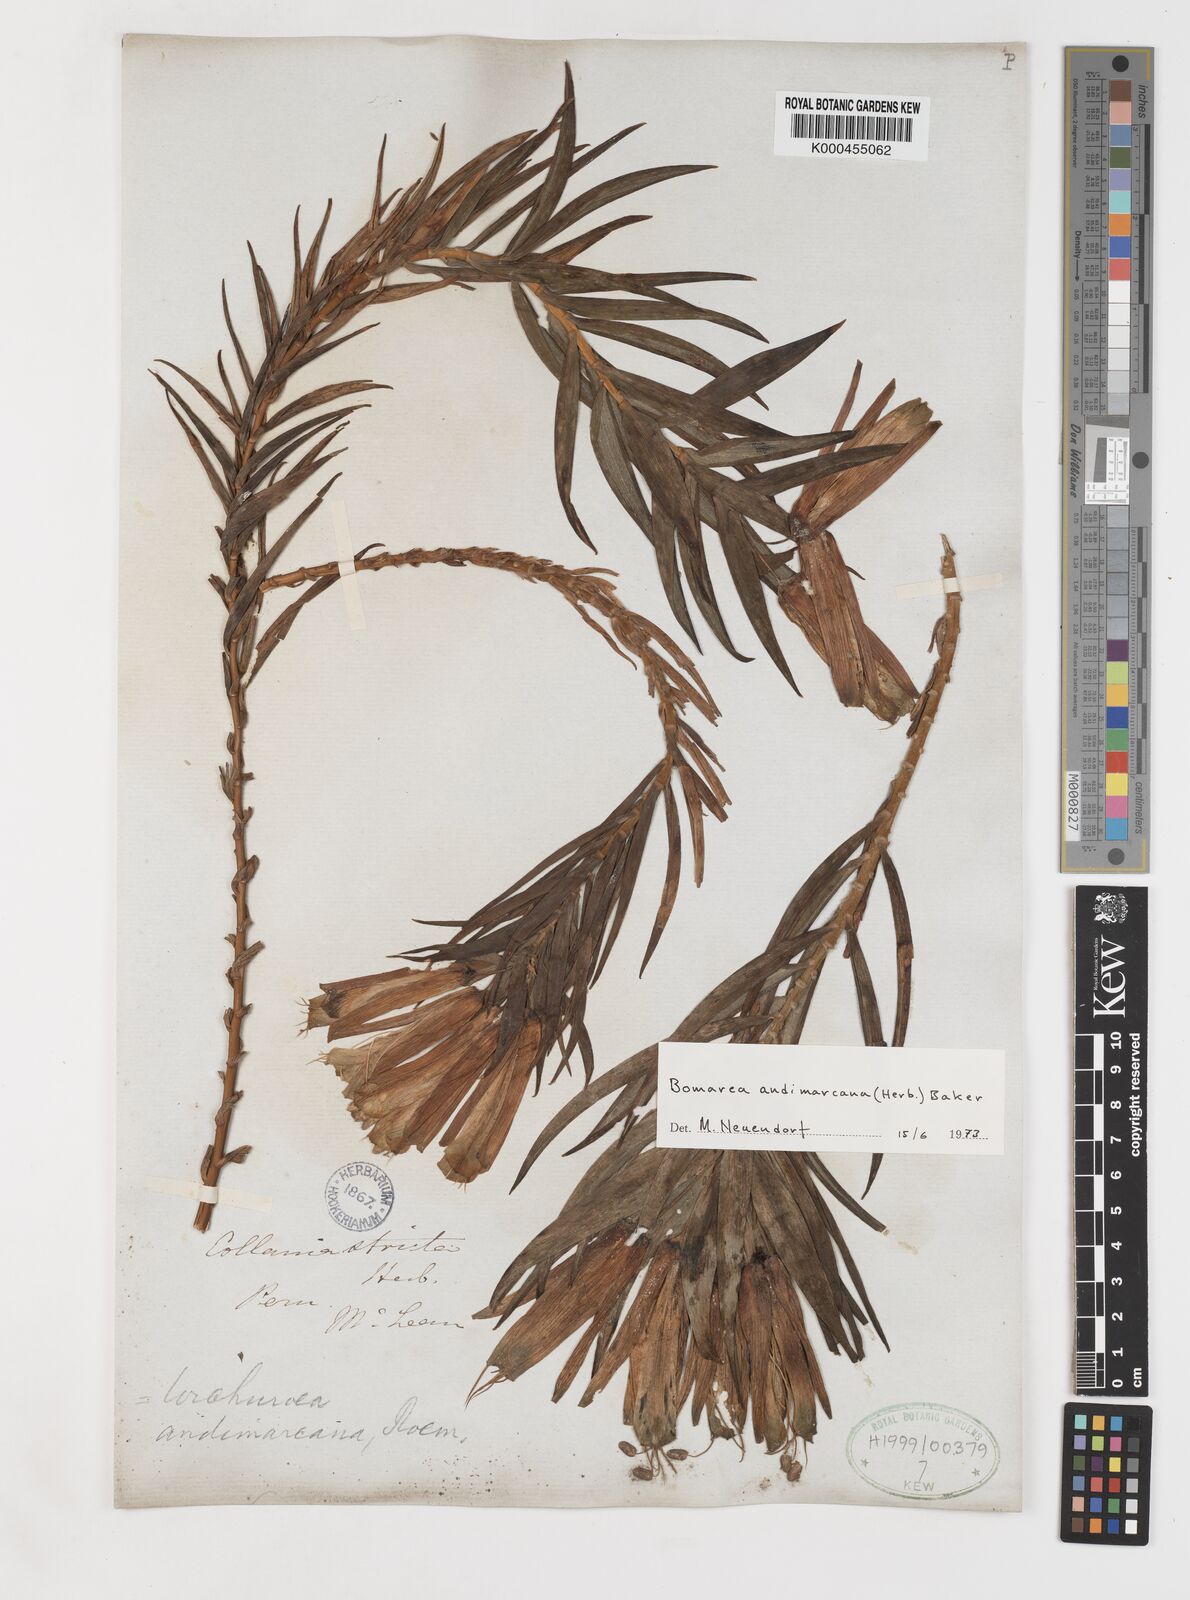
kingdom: Plantae
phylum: Tracheophyta
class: Liliopsida
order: Liliales
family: Alstroemeriaceae
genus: Bomarea
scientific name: Bomarea andimarcana
